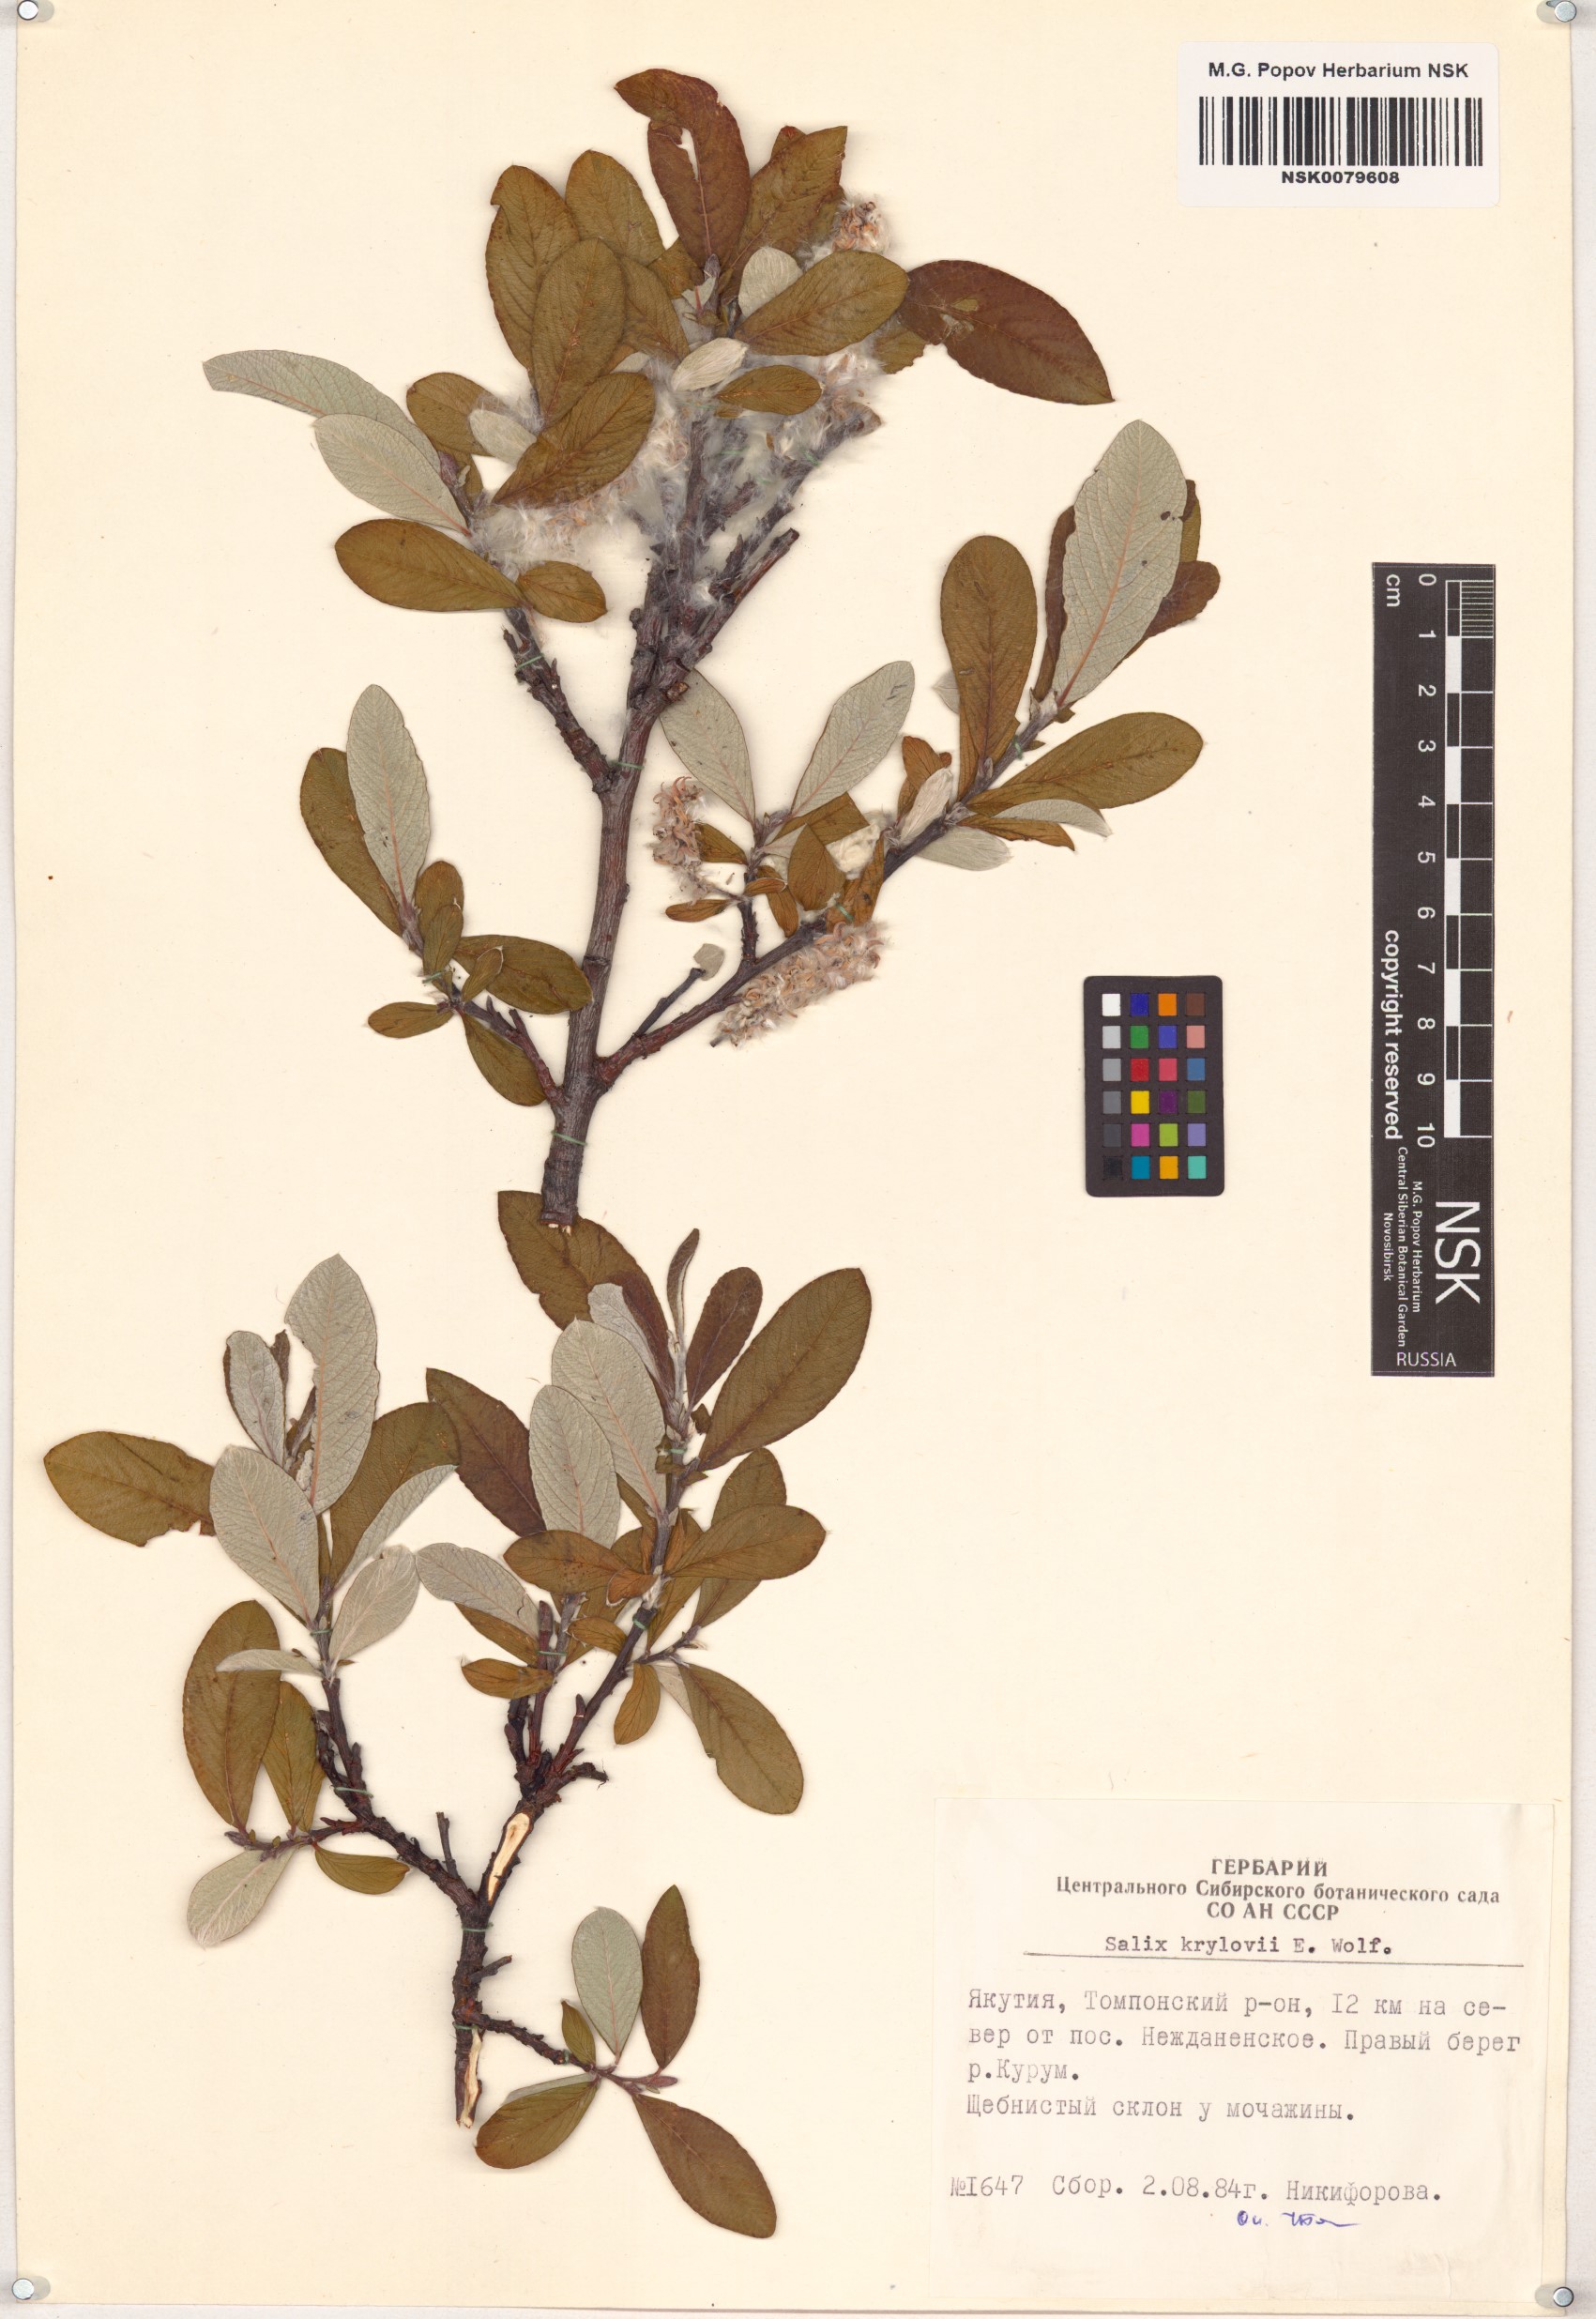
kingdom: Plantae
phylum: Tracheophyta
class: Magnoliopsida
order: Malpighiales
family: Salicaceae
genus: Salix
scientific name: Salix krylovii
